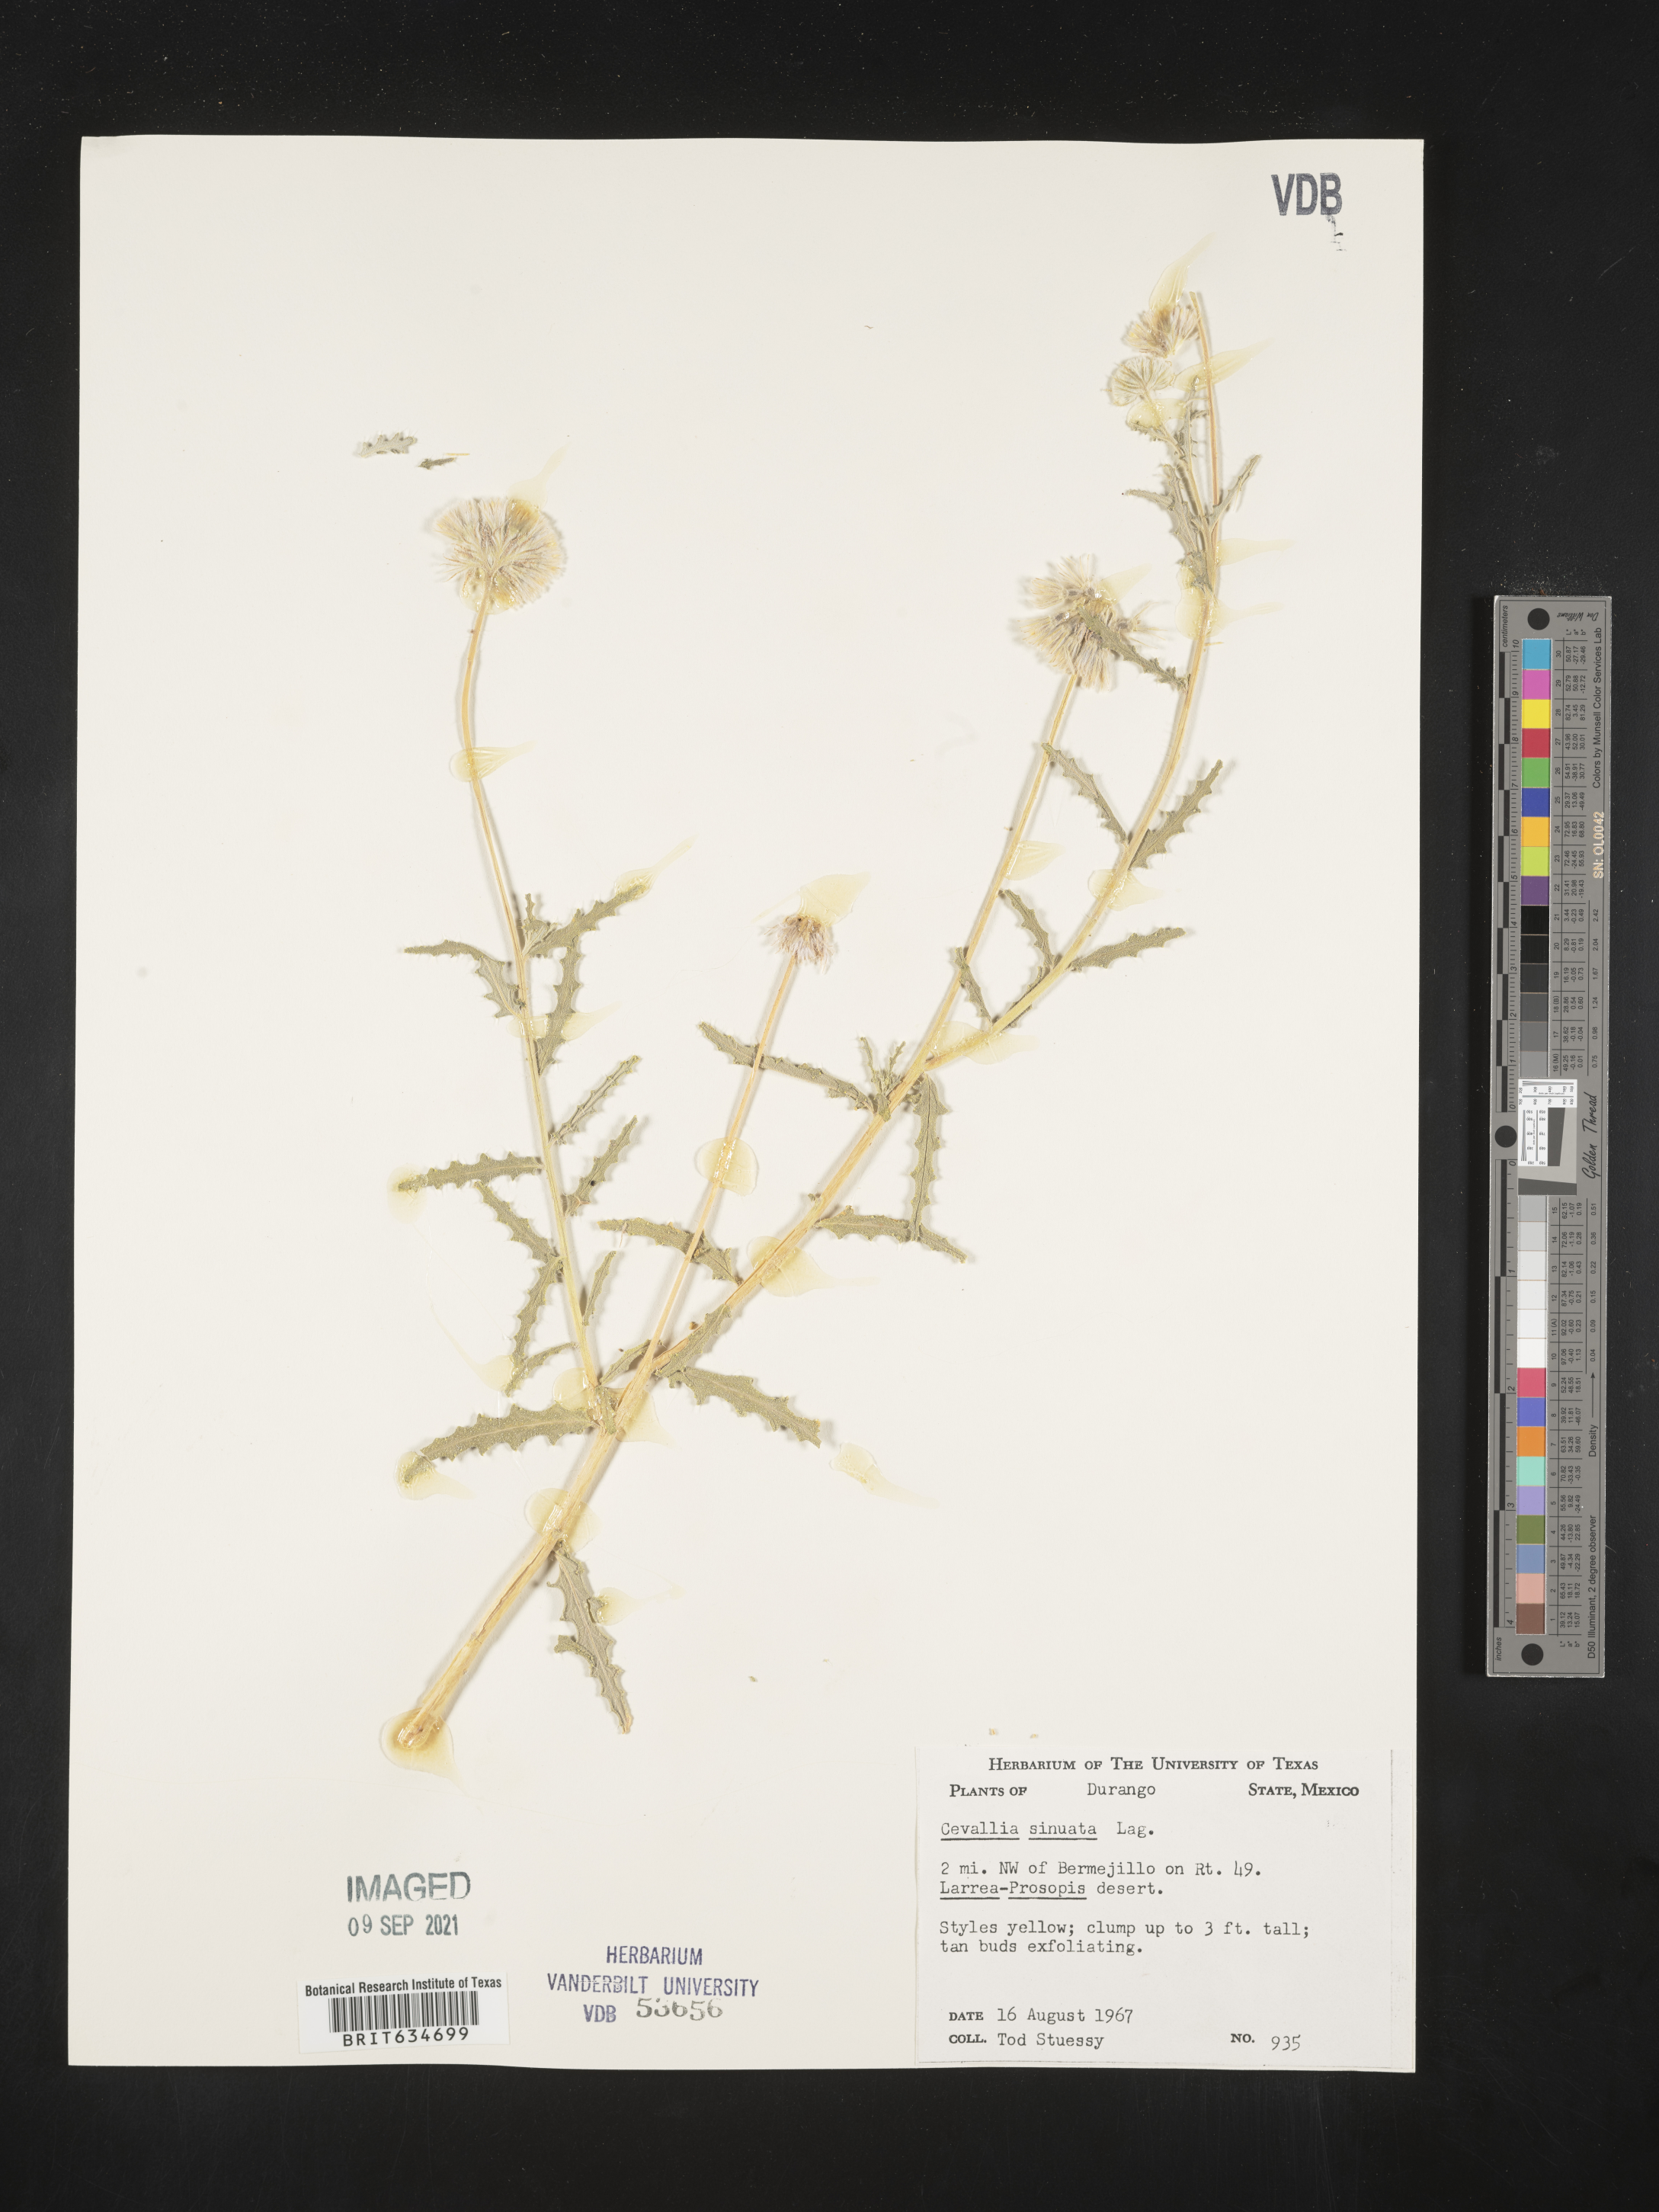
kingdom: Plantae
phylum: Tracheophyta
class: Magnoliopsida
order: Cornales
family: Loasaceae
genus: Cevallia
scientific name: Cevallia
